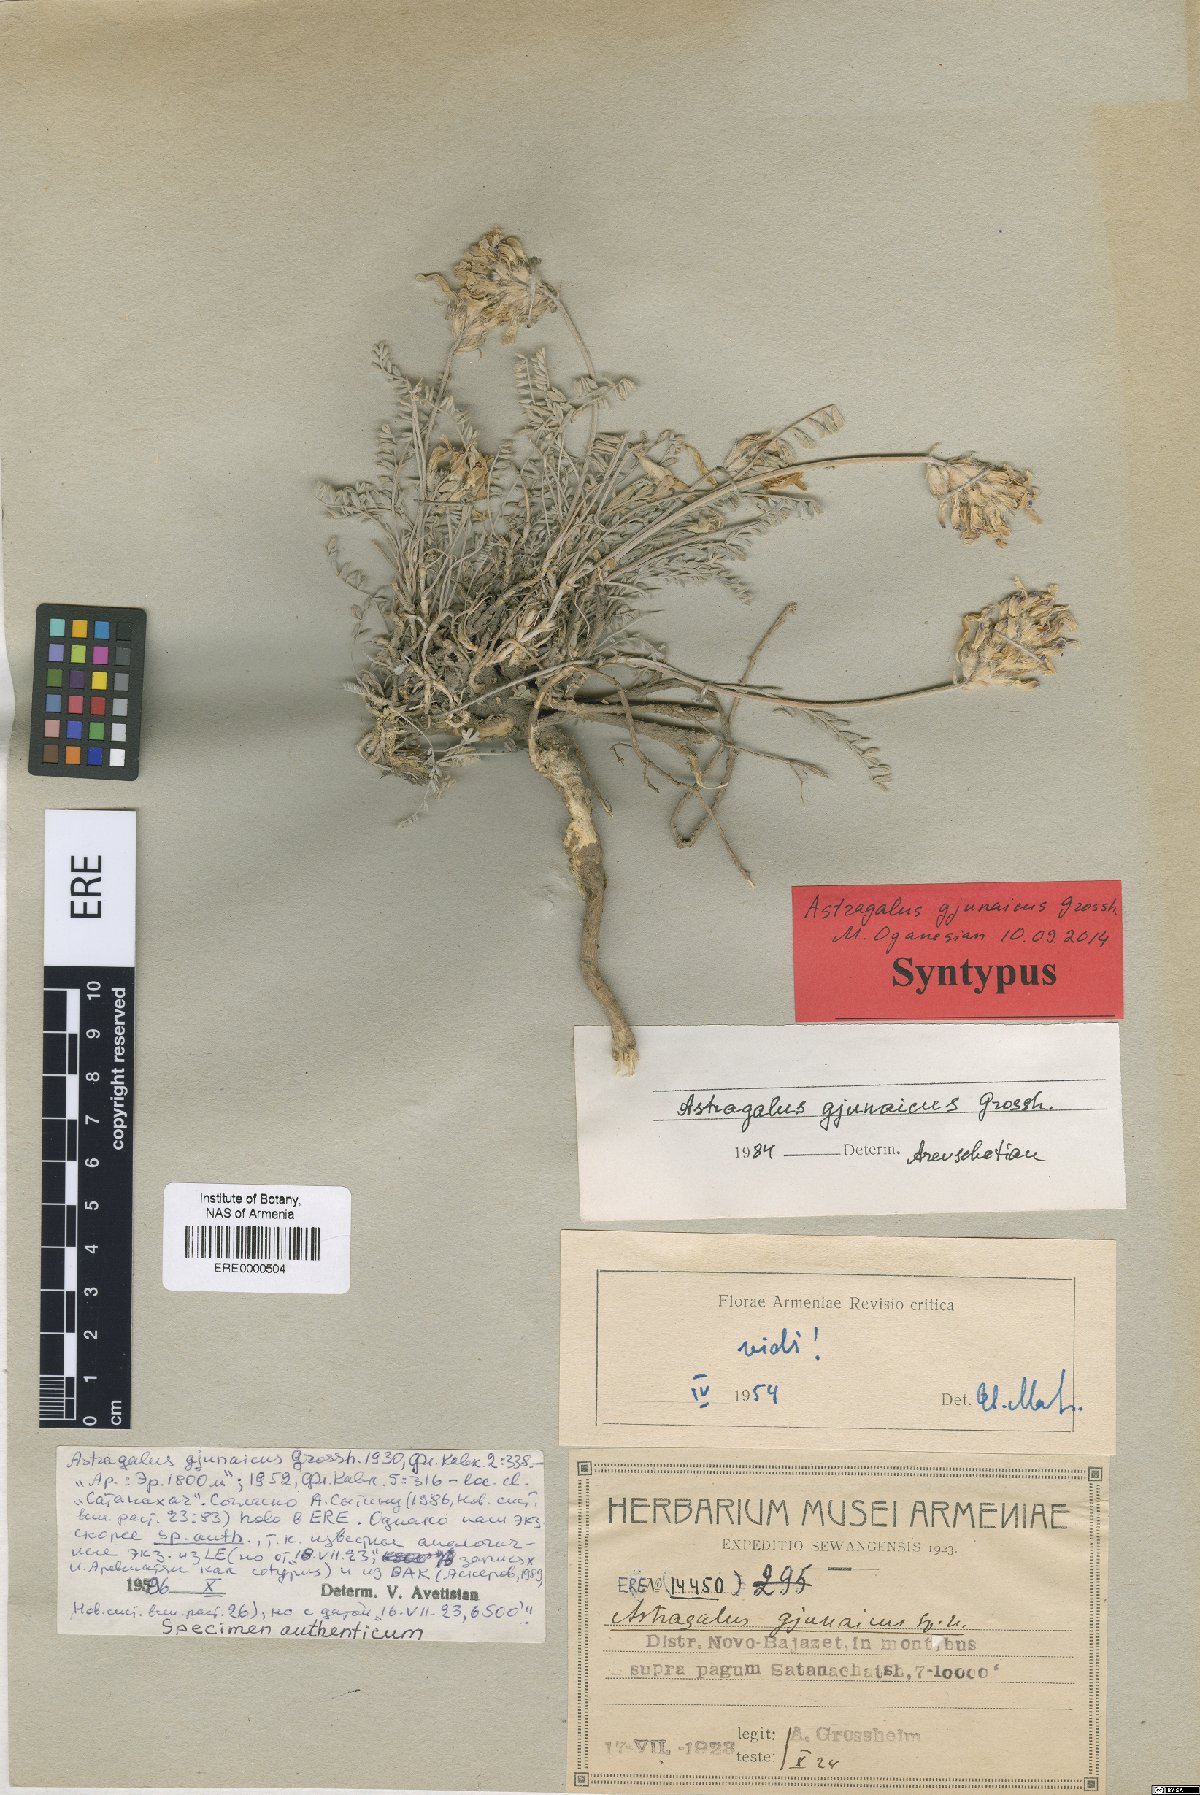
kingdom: Plantae
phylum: Tracheophyta
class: Magnoliopsida
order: Fabales
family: Fabaceae
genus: Astragalus
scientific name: Astragalus psoraloides
